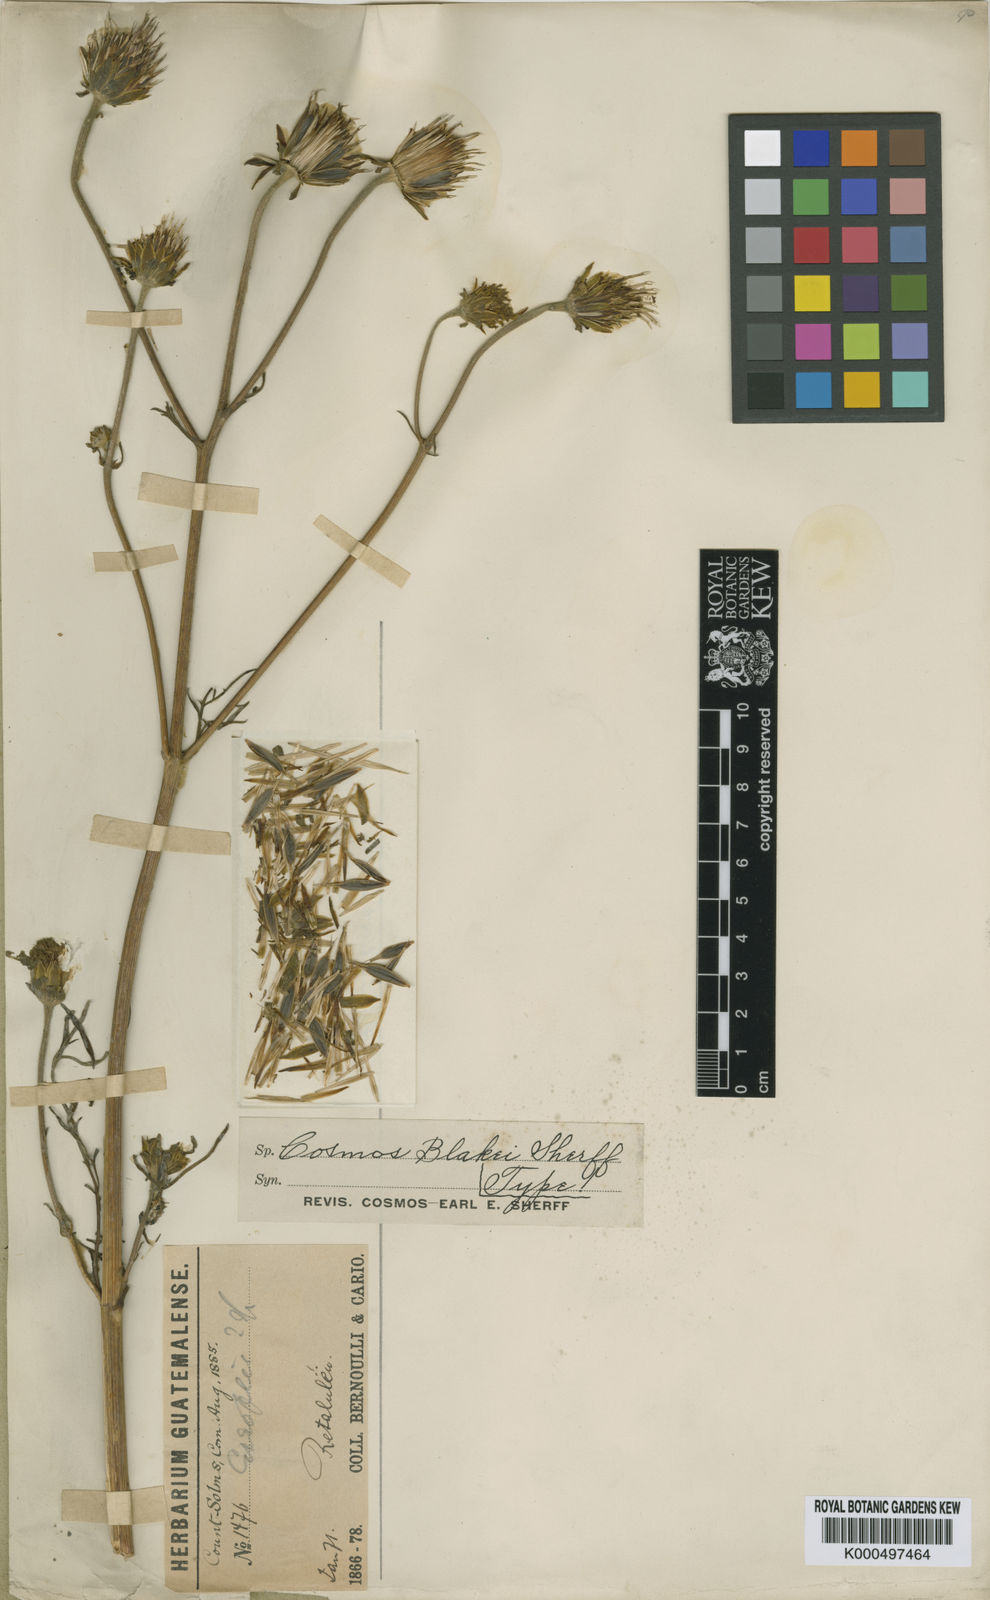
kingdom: Plantae
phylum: Tracheophyta
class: Magnoliopsida
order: Asterales
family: Asteraceae
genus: Bidens
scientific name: Bidens blakei
